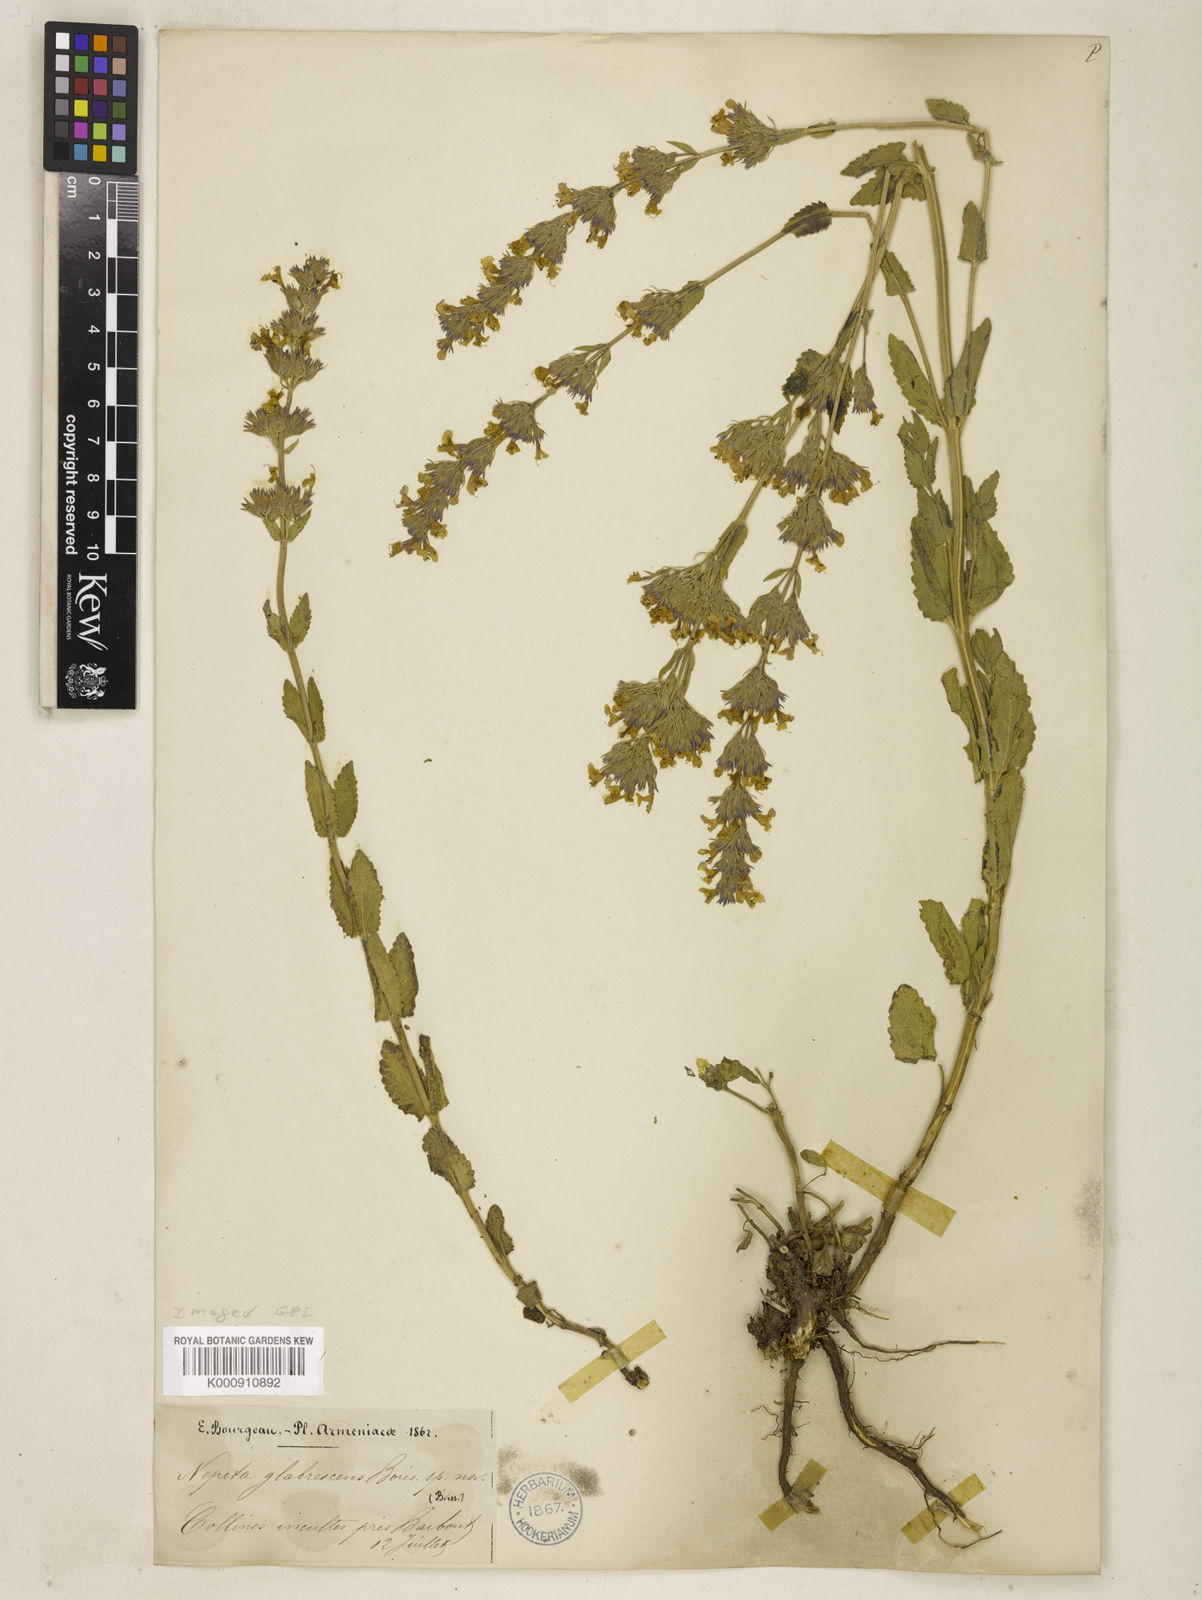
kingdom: Plantae
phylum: Tracheophyta
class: Magnoliopsida
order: Lamiales
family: Lamiaceae
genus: Nepeta
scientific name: Nepeta betonicifolia
